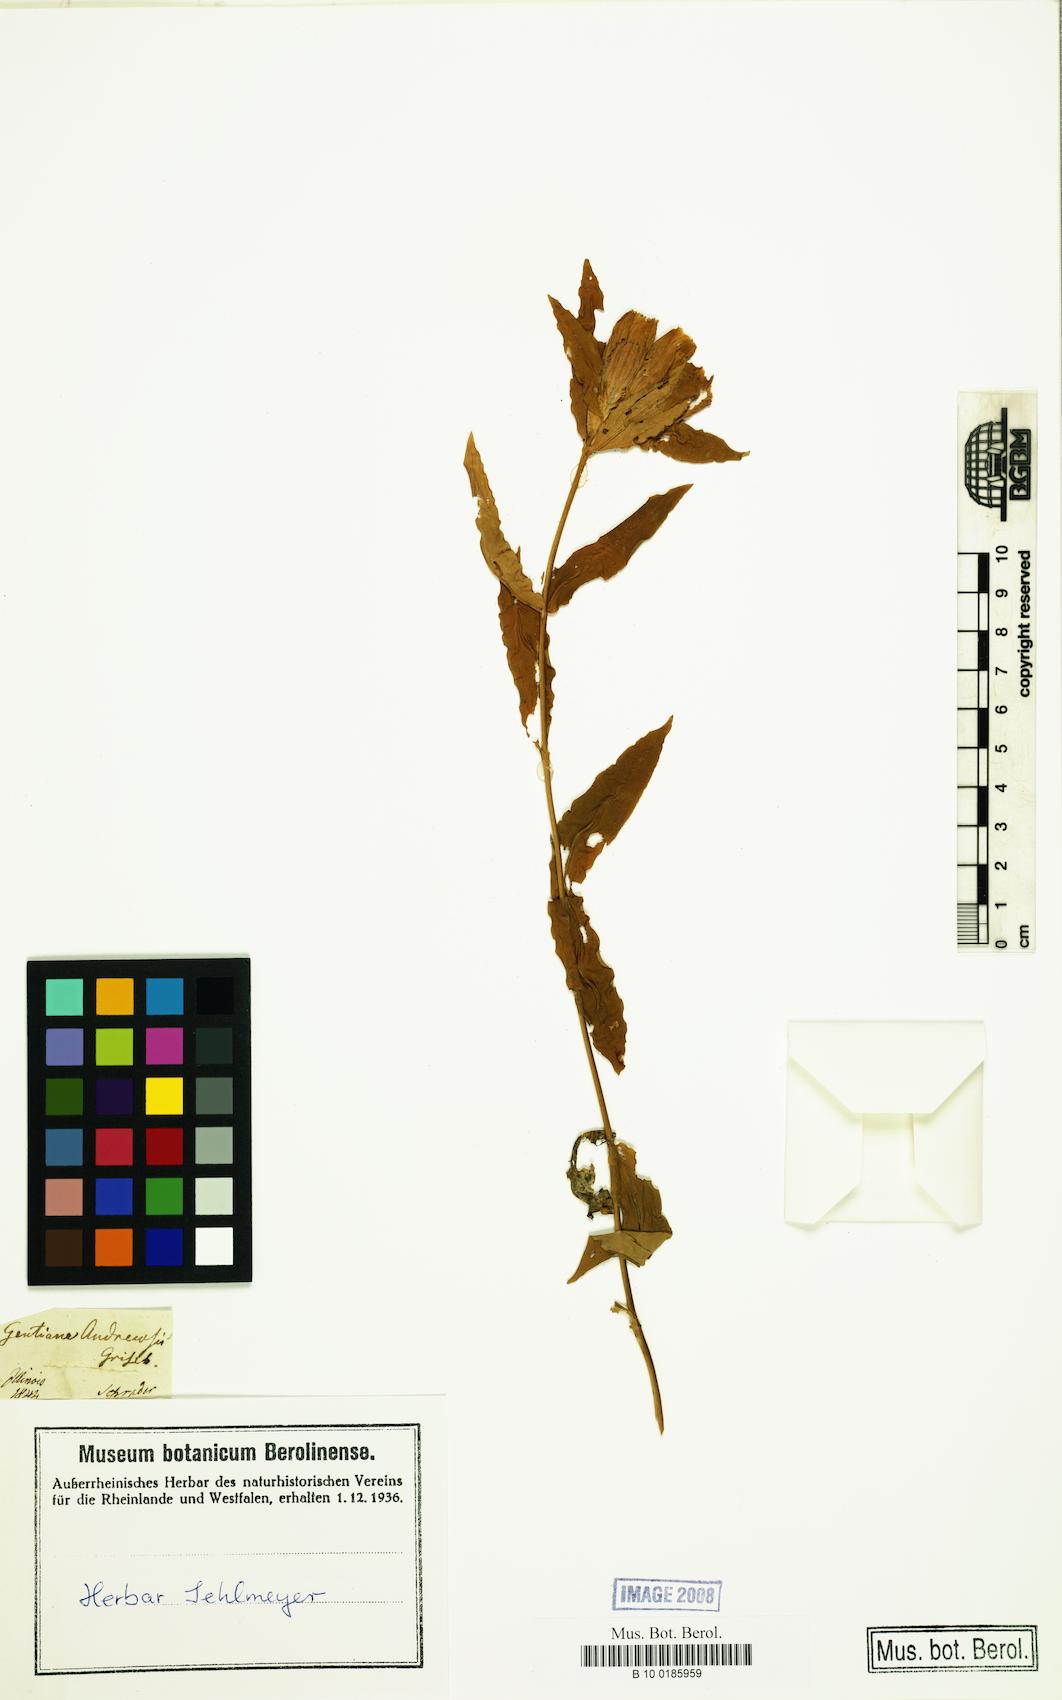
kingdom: Plantae
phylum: Tracheophyta
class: Magnoliopsida
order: Gentianales
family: Gentianaceae
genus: Gentiana
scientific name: Gentiana andrewsii
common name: Bottle gentian
